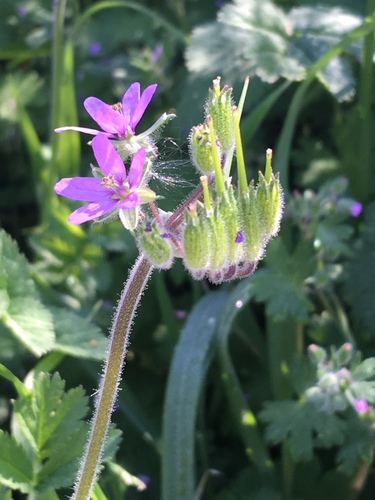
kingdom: Plantae
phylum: Tracheophyta
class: Magnoliopsida
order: Geraniales
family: Geraniaceae
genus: Erodium
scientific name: Erodium moschatum
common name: Musk stork's-bill
